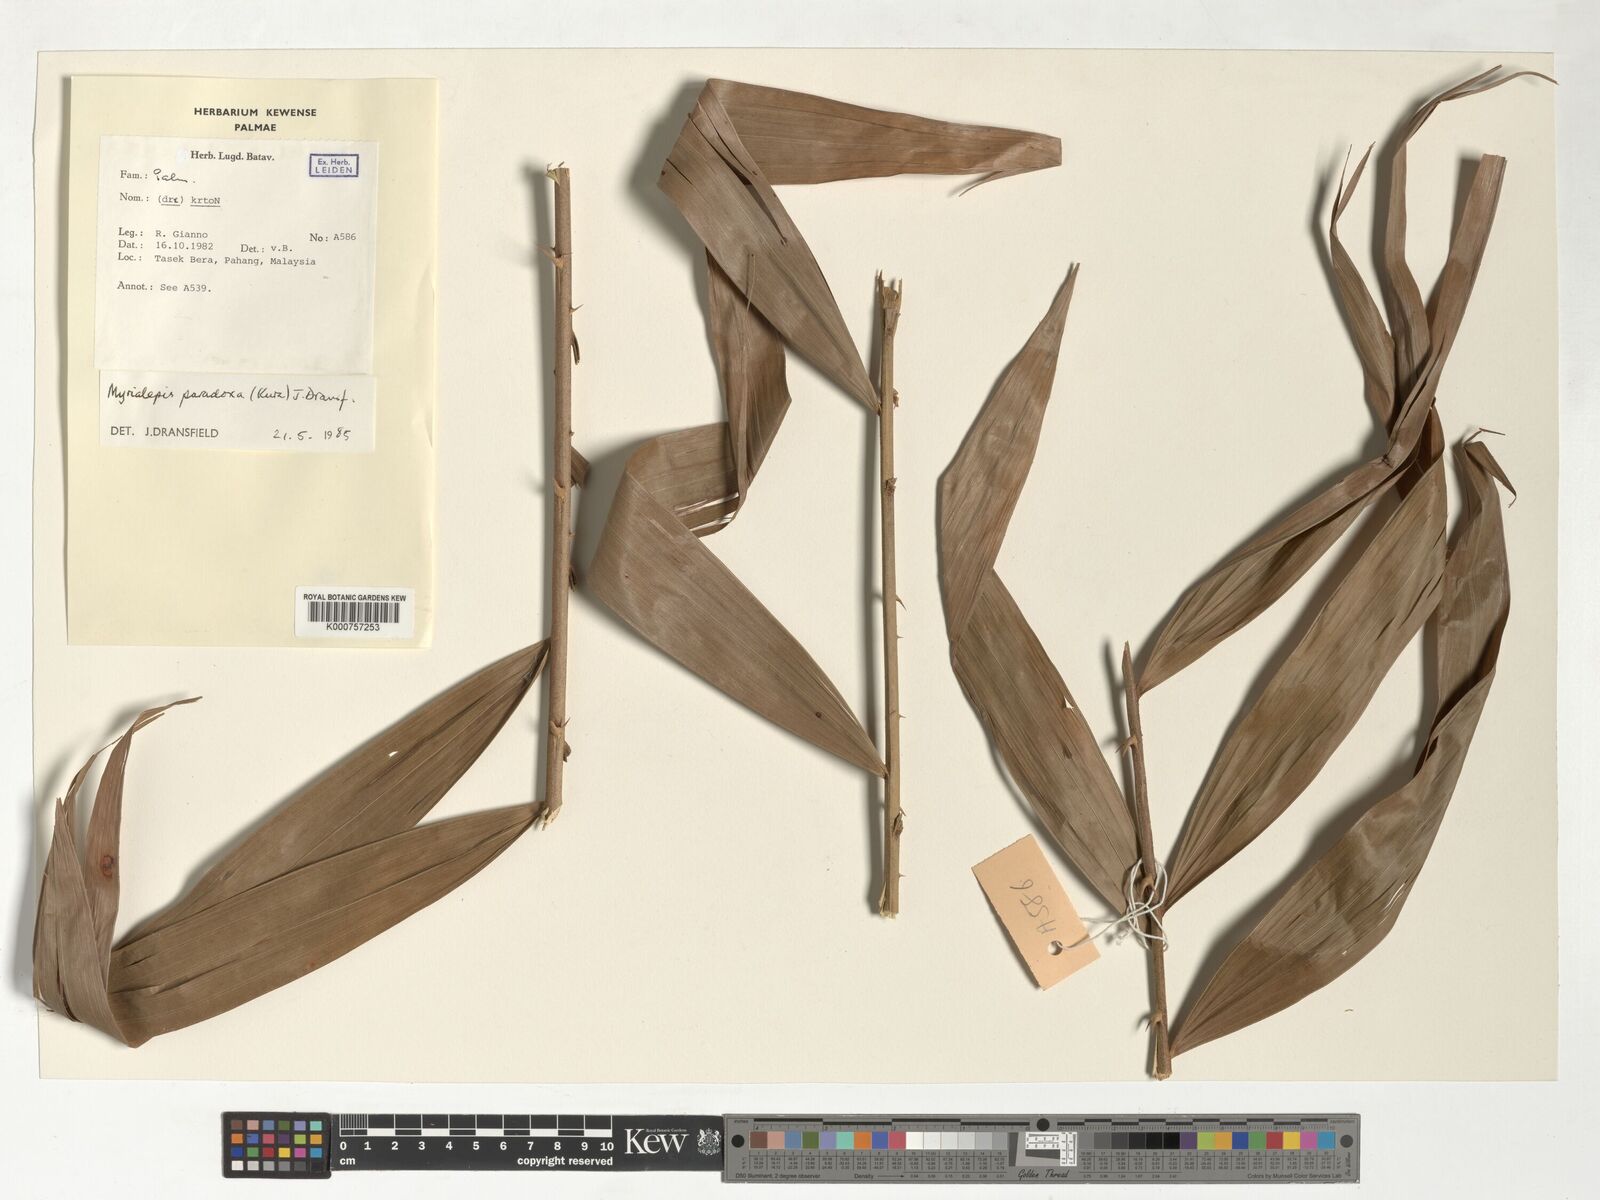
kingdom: Plantae
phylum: Tracheophyta
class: Liliopsida
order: Arecales
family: Arecaceae
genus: Myrialepis
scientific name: Myrialepis paradoxa
